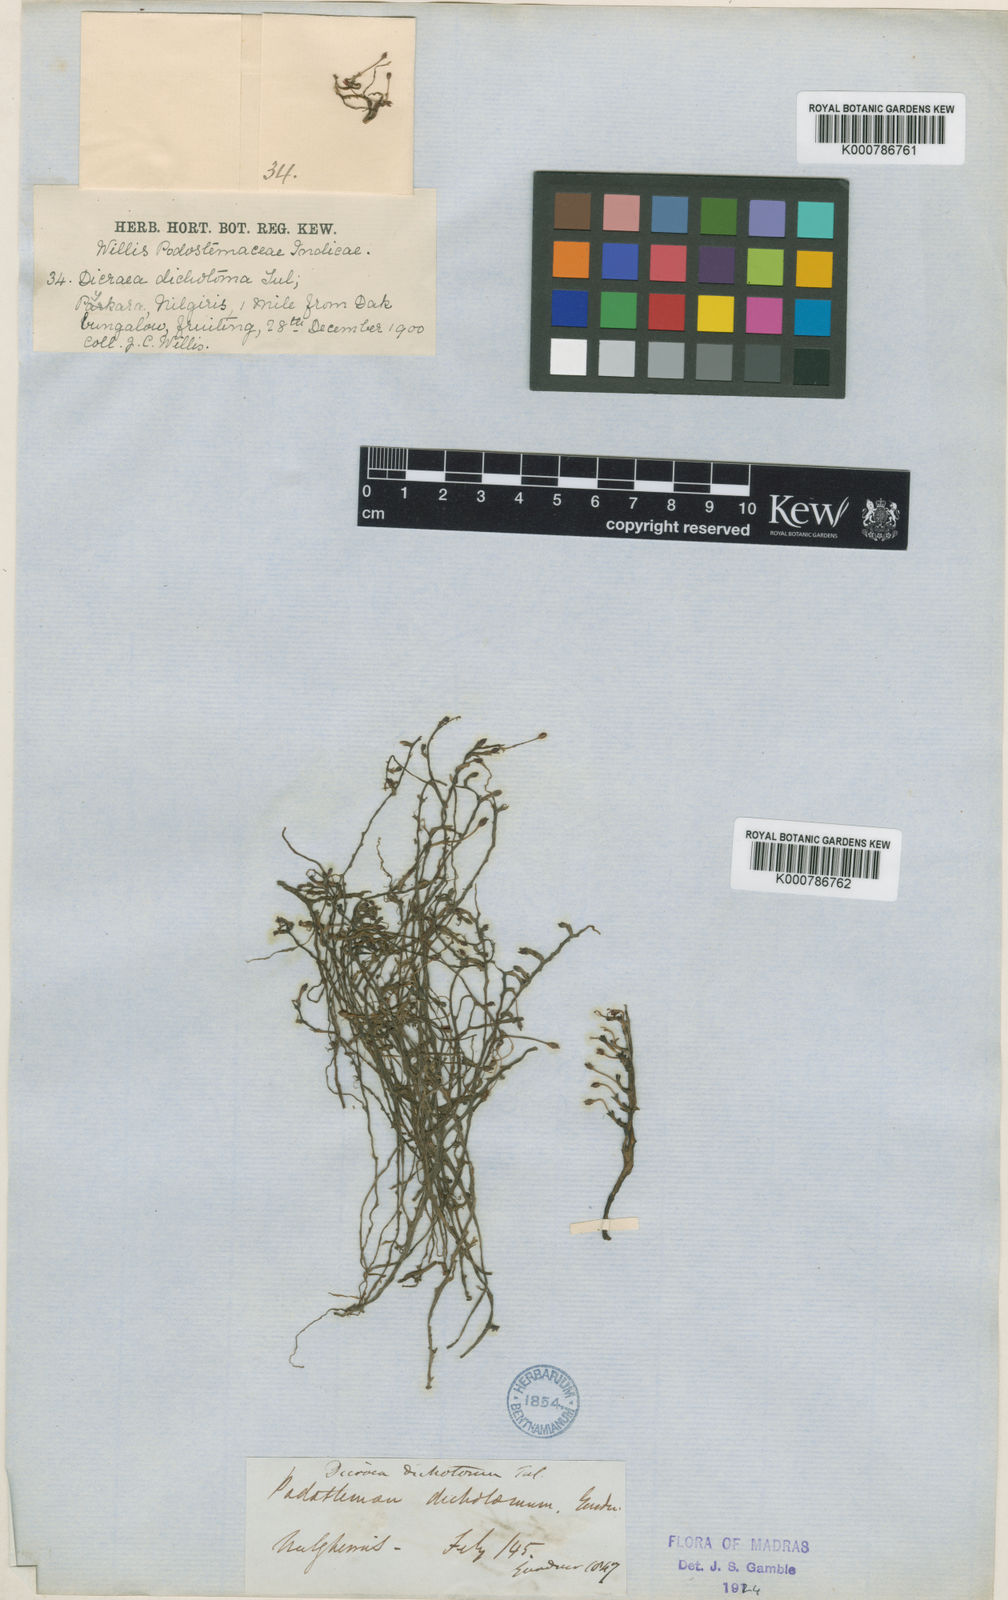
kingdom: Plantae
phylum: Tracheophyta
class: Magnoliopsida
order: Malpighiales
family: Podostemaceae
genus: Polypleurum
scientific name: Polypleurum dichotomum
